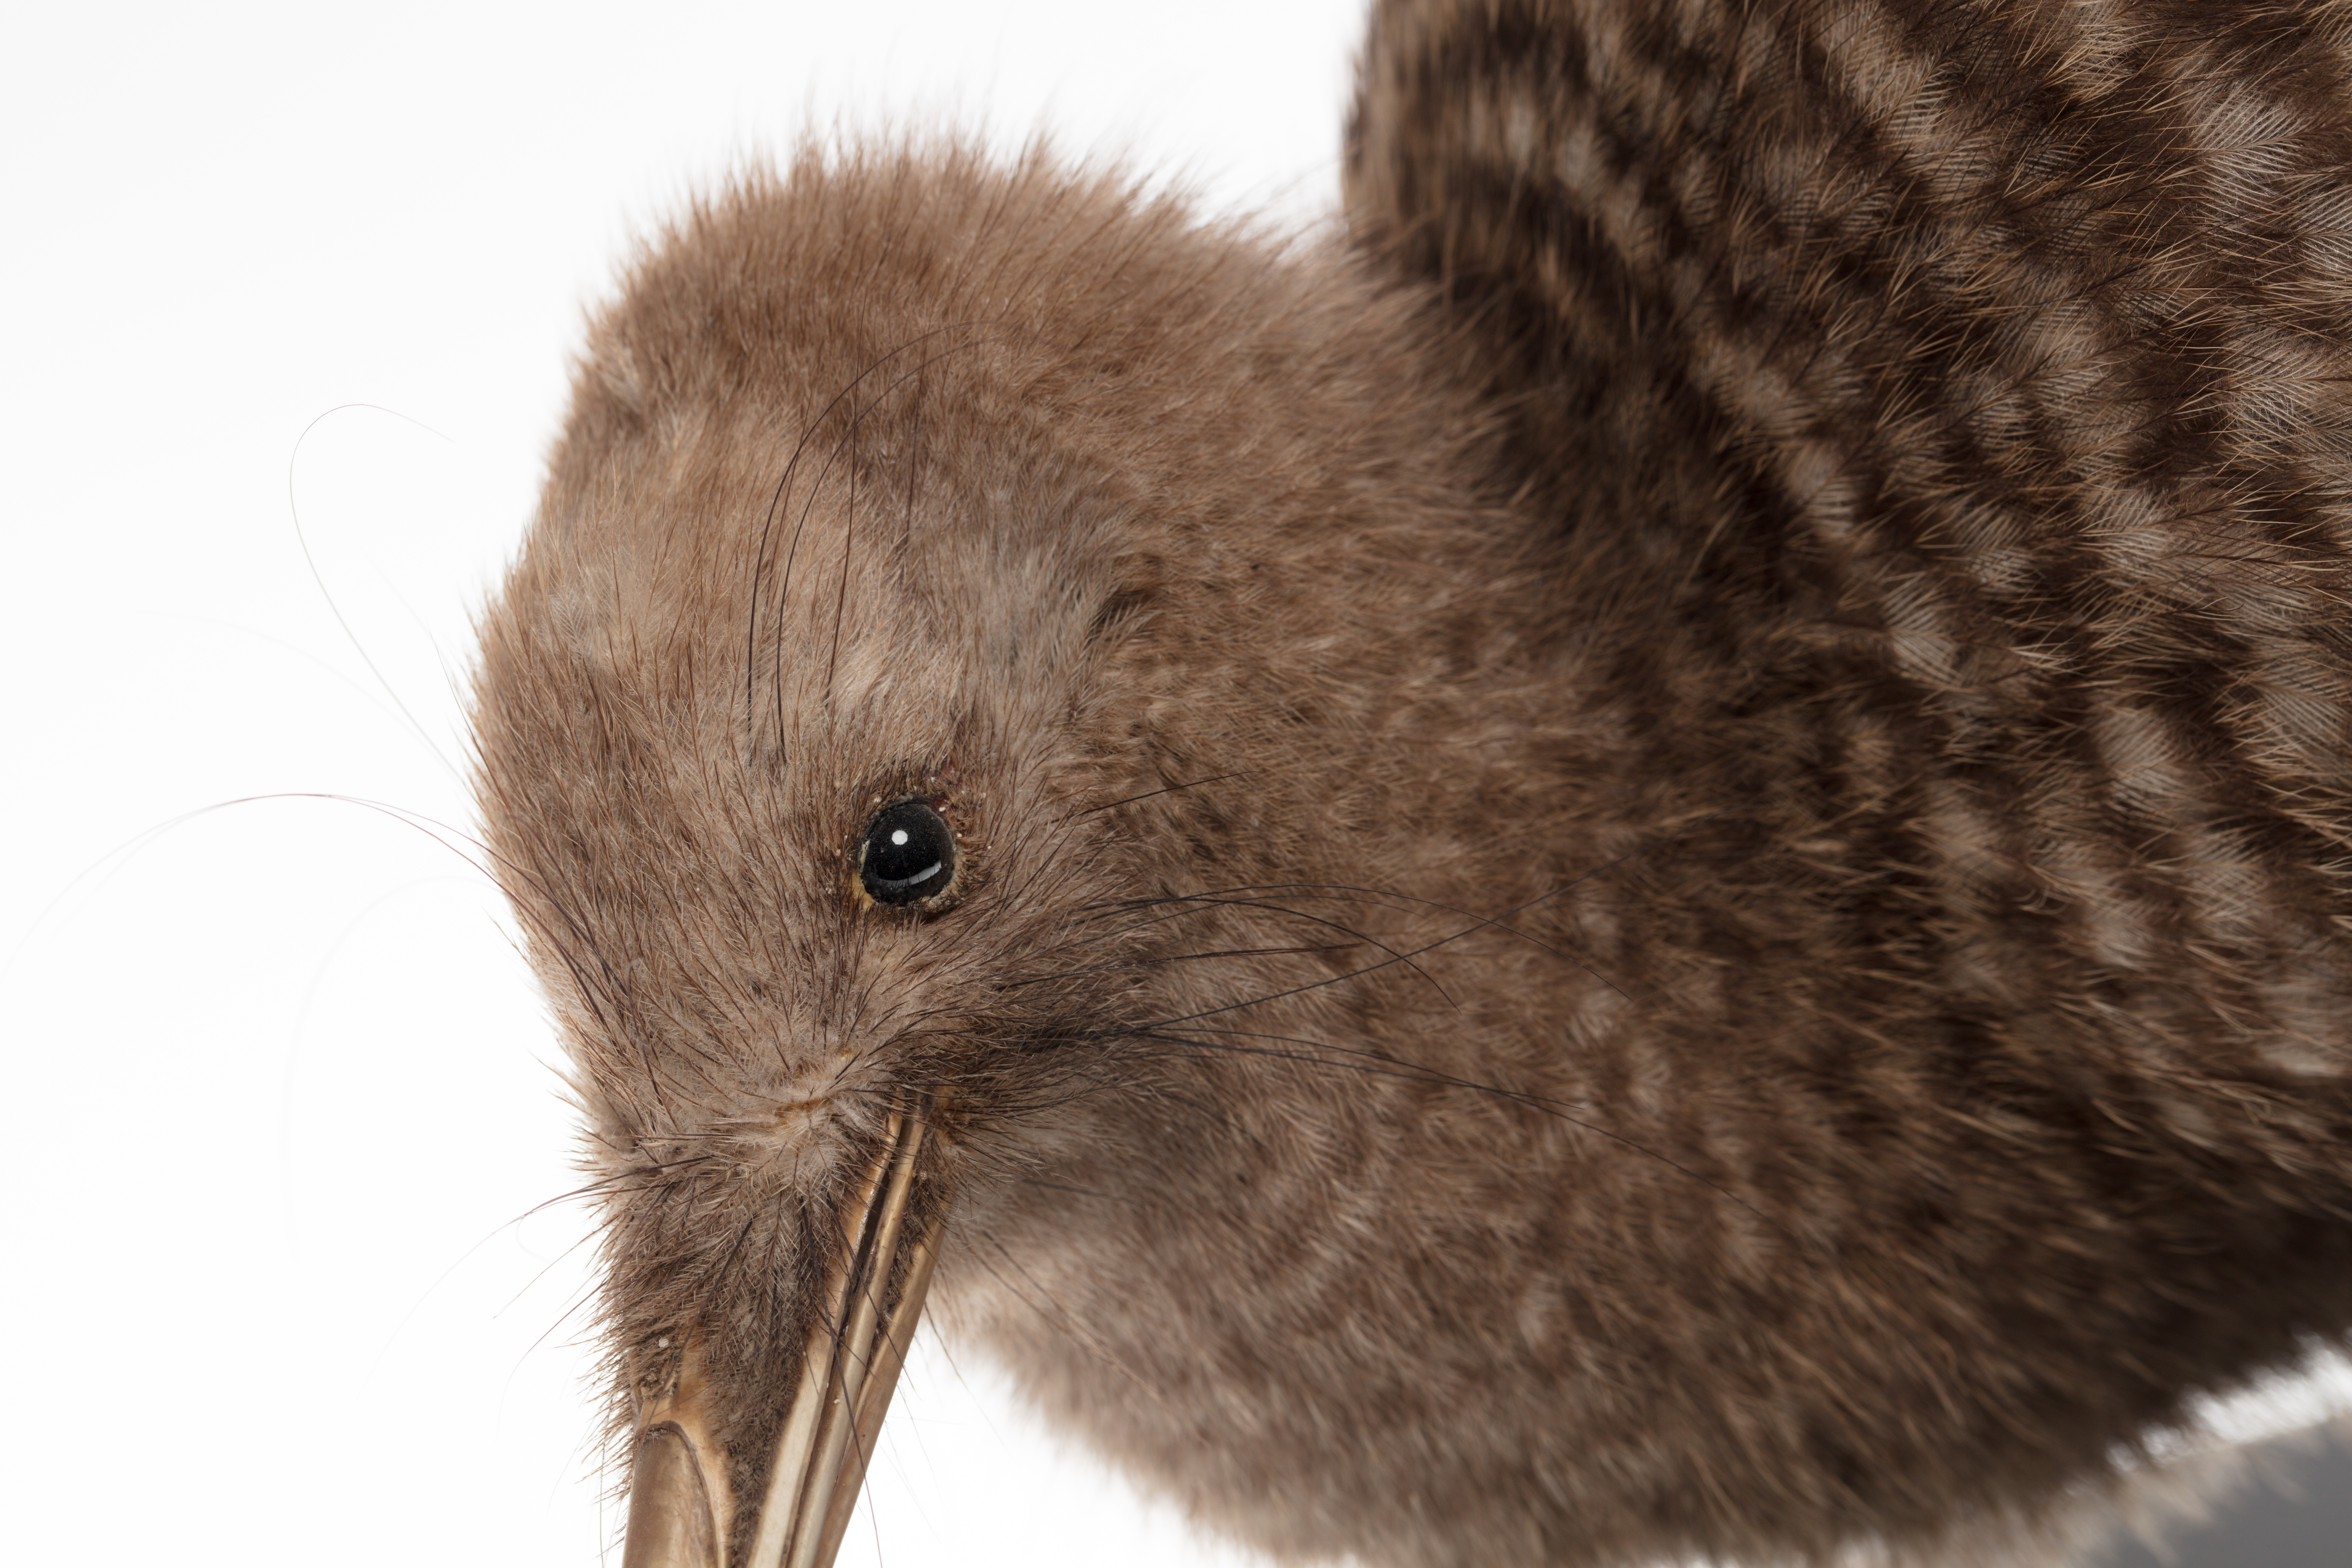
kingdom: Animalia
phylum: Chordata
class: Aves
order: Apterygiformes
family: Apterygidae
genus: Apteryx
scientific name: Apteryx
